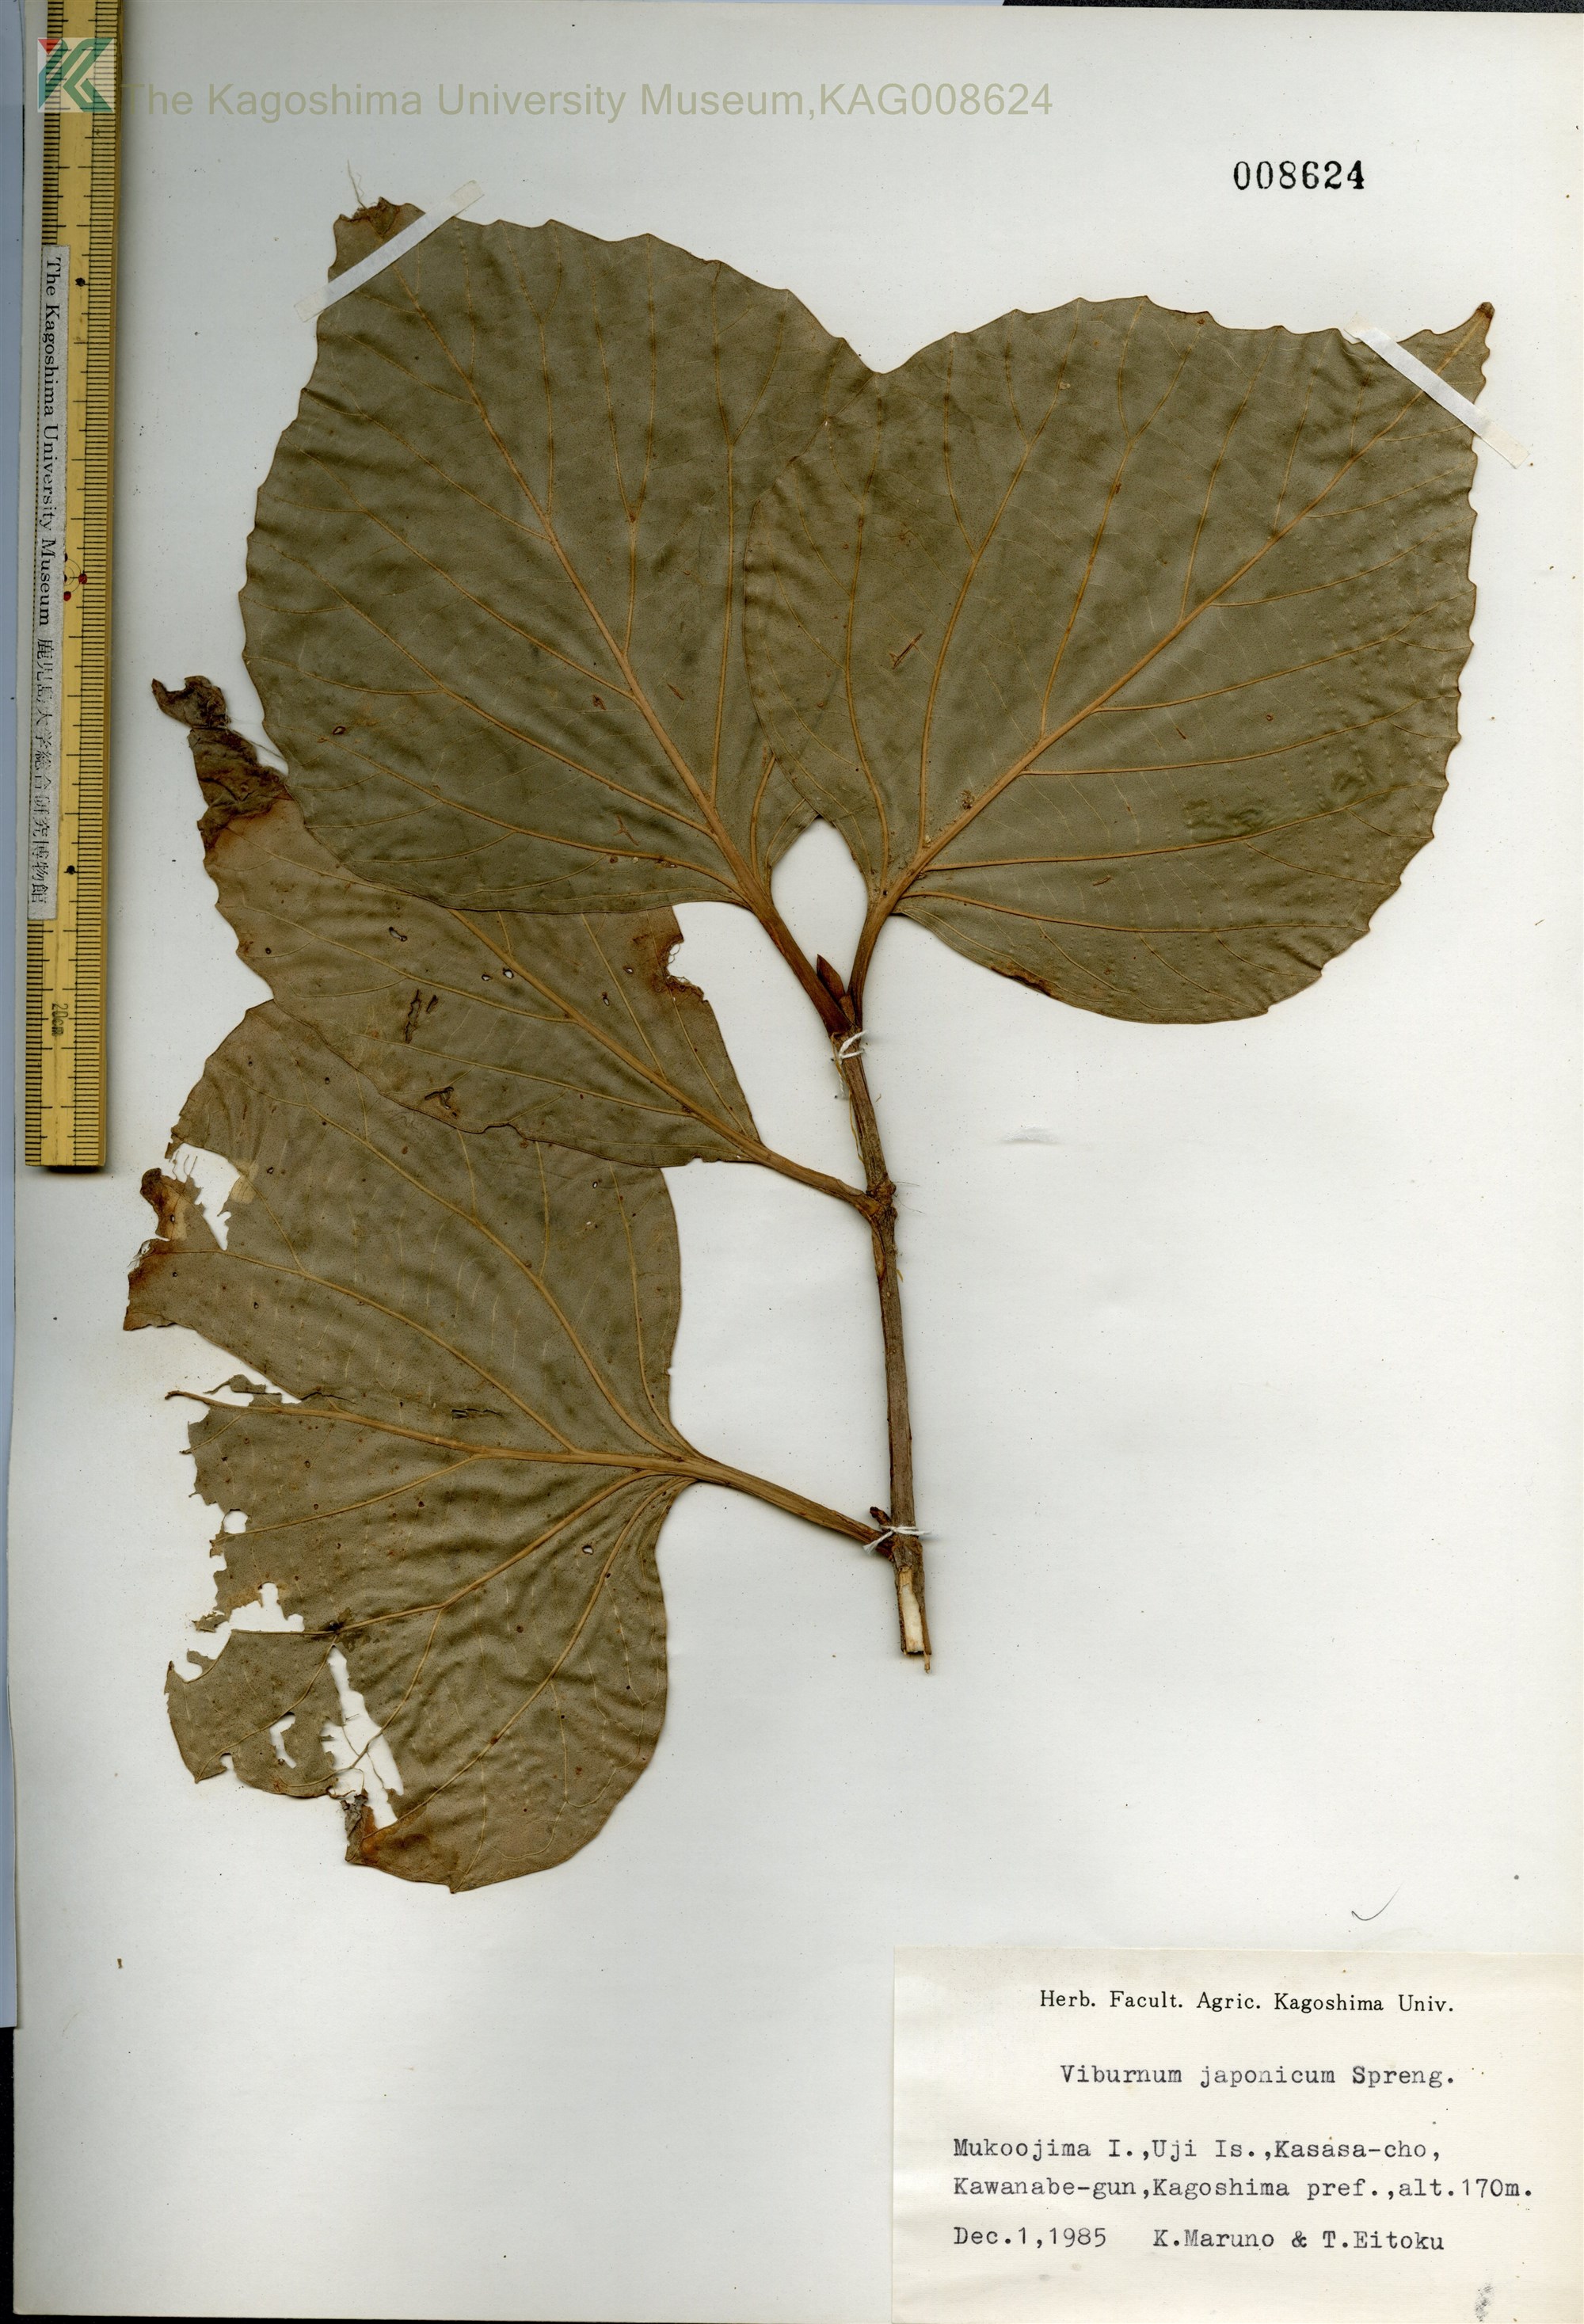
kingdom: Plantae
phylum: Tracheophyta
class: Magnoliopsida
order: Dipsacales
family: Viburnaceae
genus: Viburnum
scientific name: Viburnum japonicum
